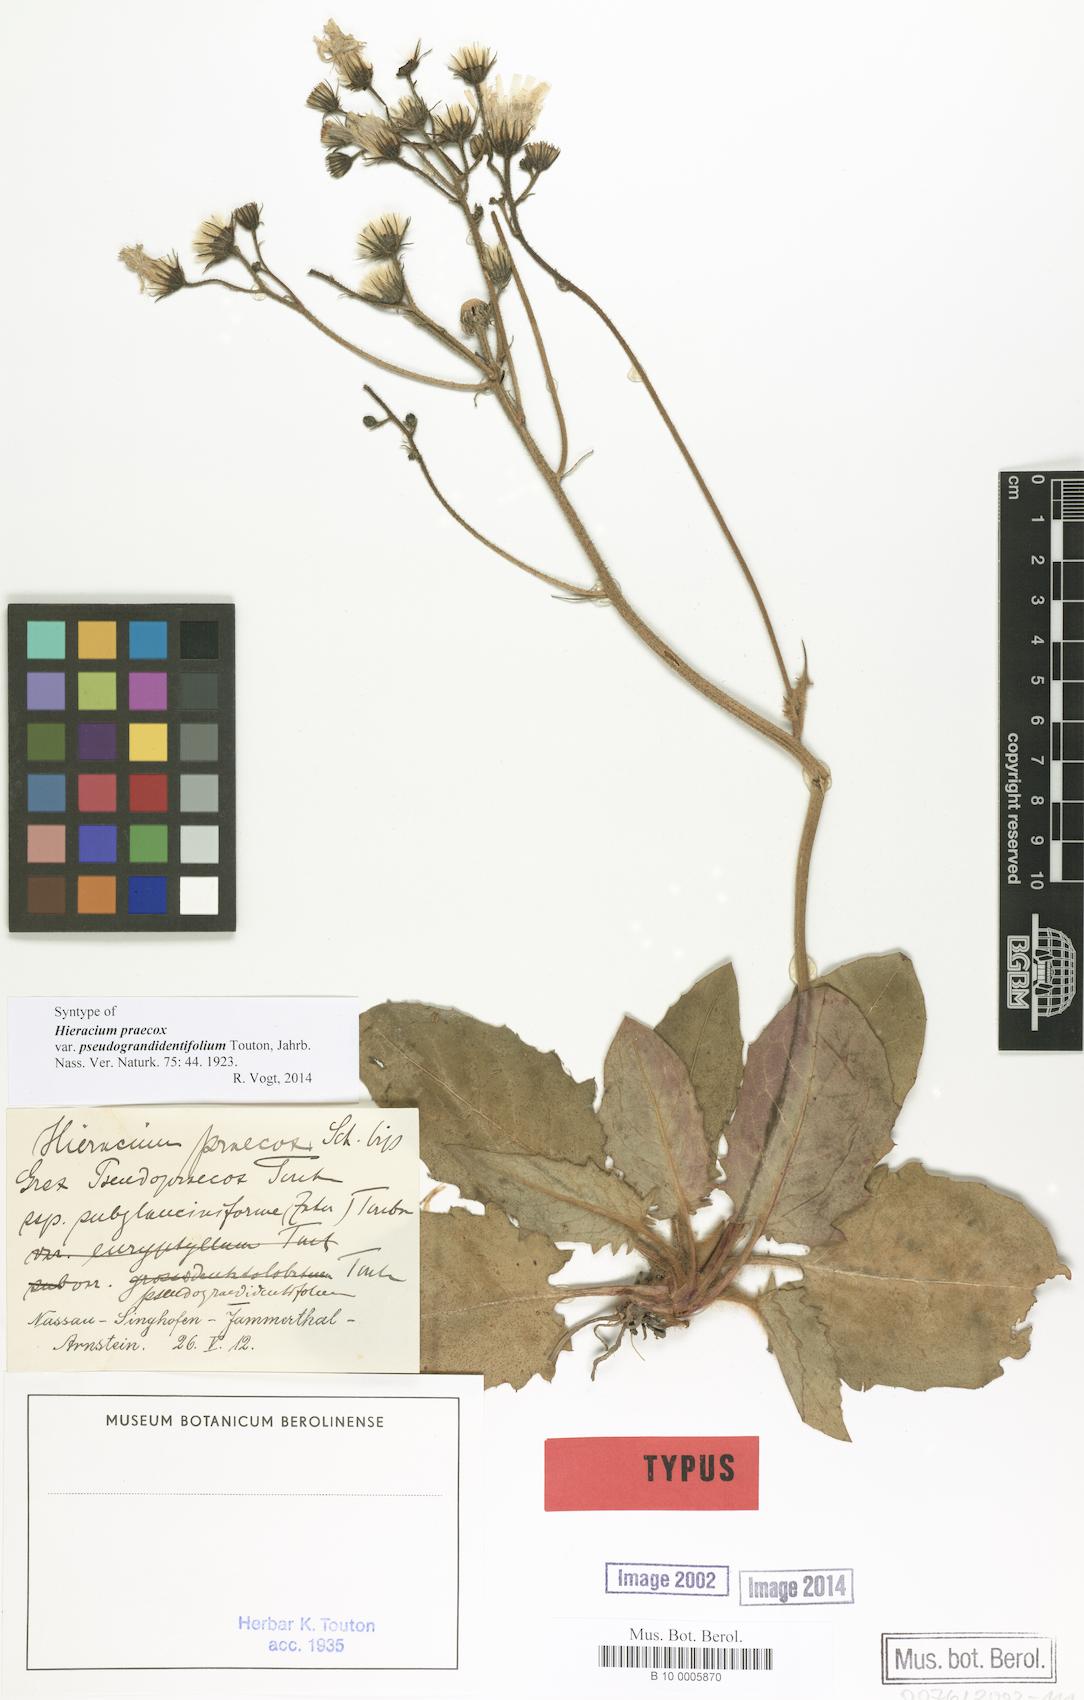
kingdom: Plantae
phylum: Tracheophyta
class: Magnoliopsida
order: Asterales
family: Asteraceae
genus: Hieracium
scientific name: Hieracium praecox
